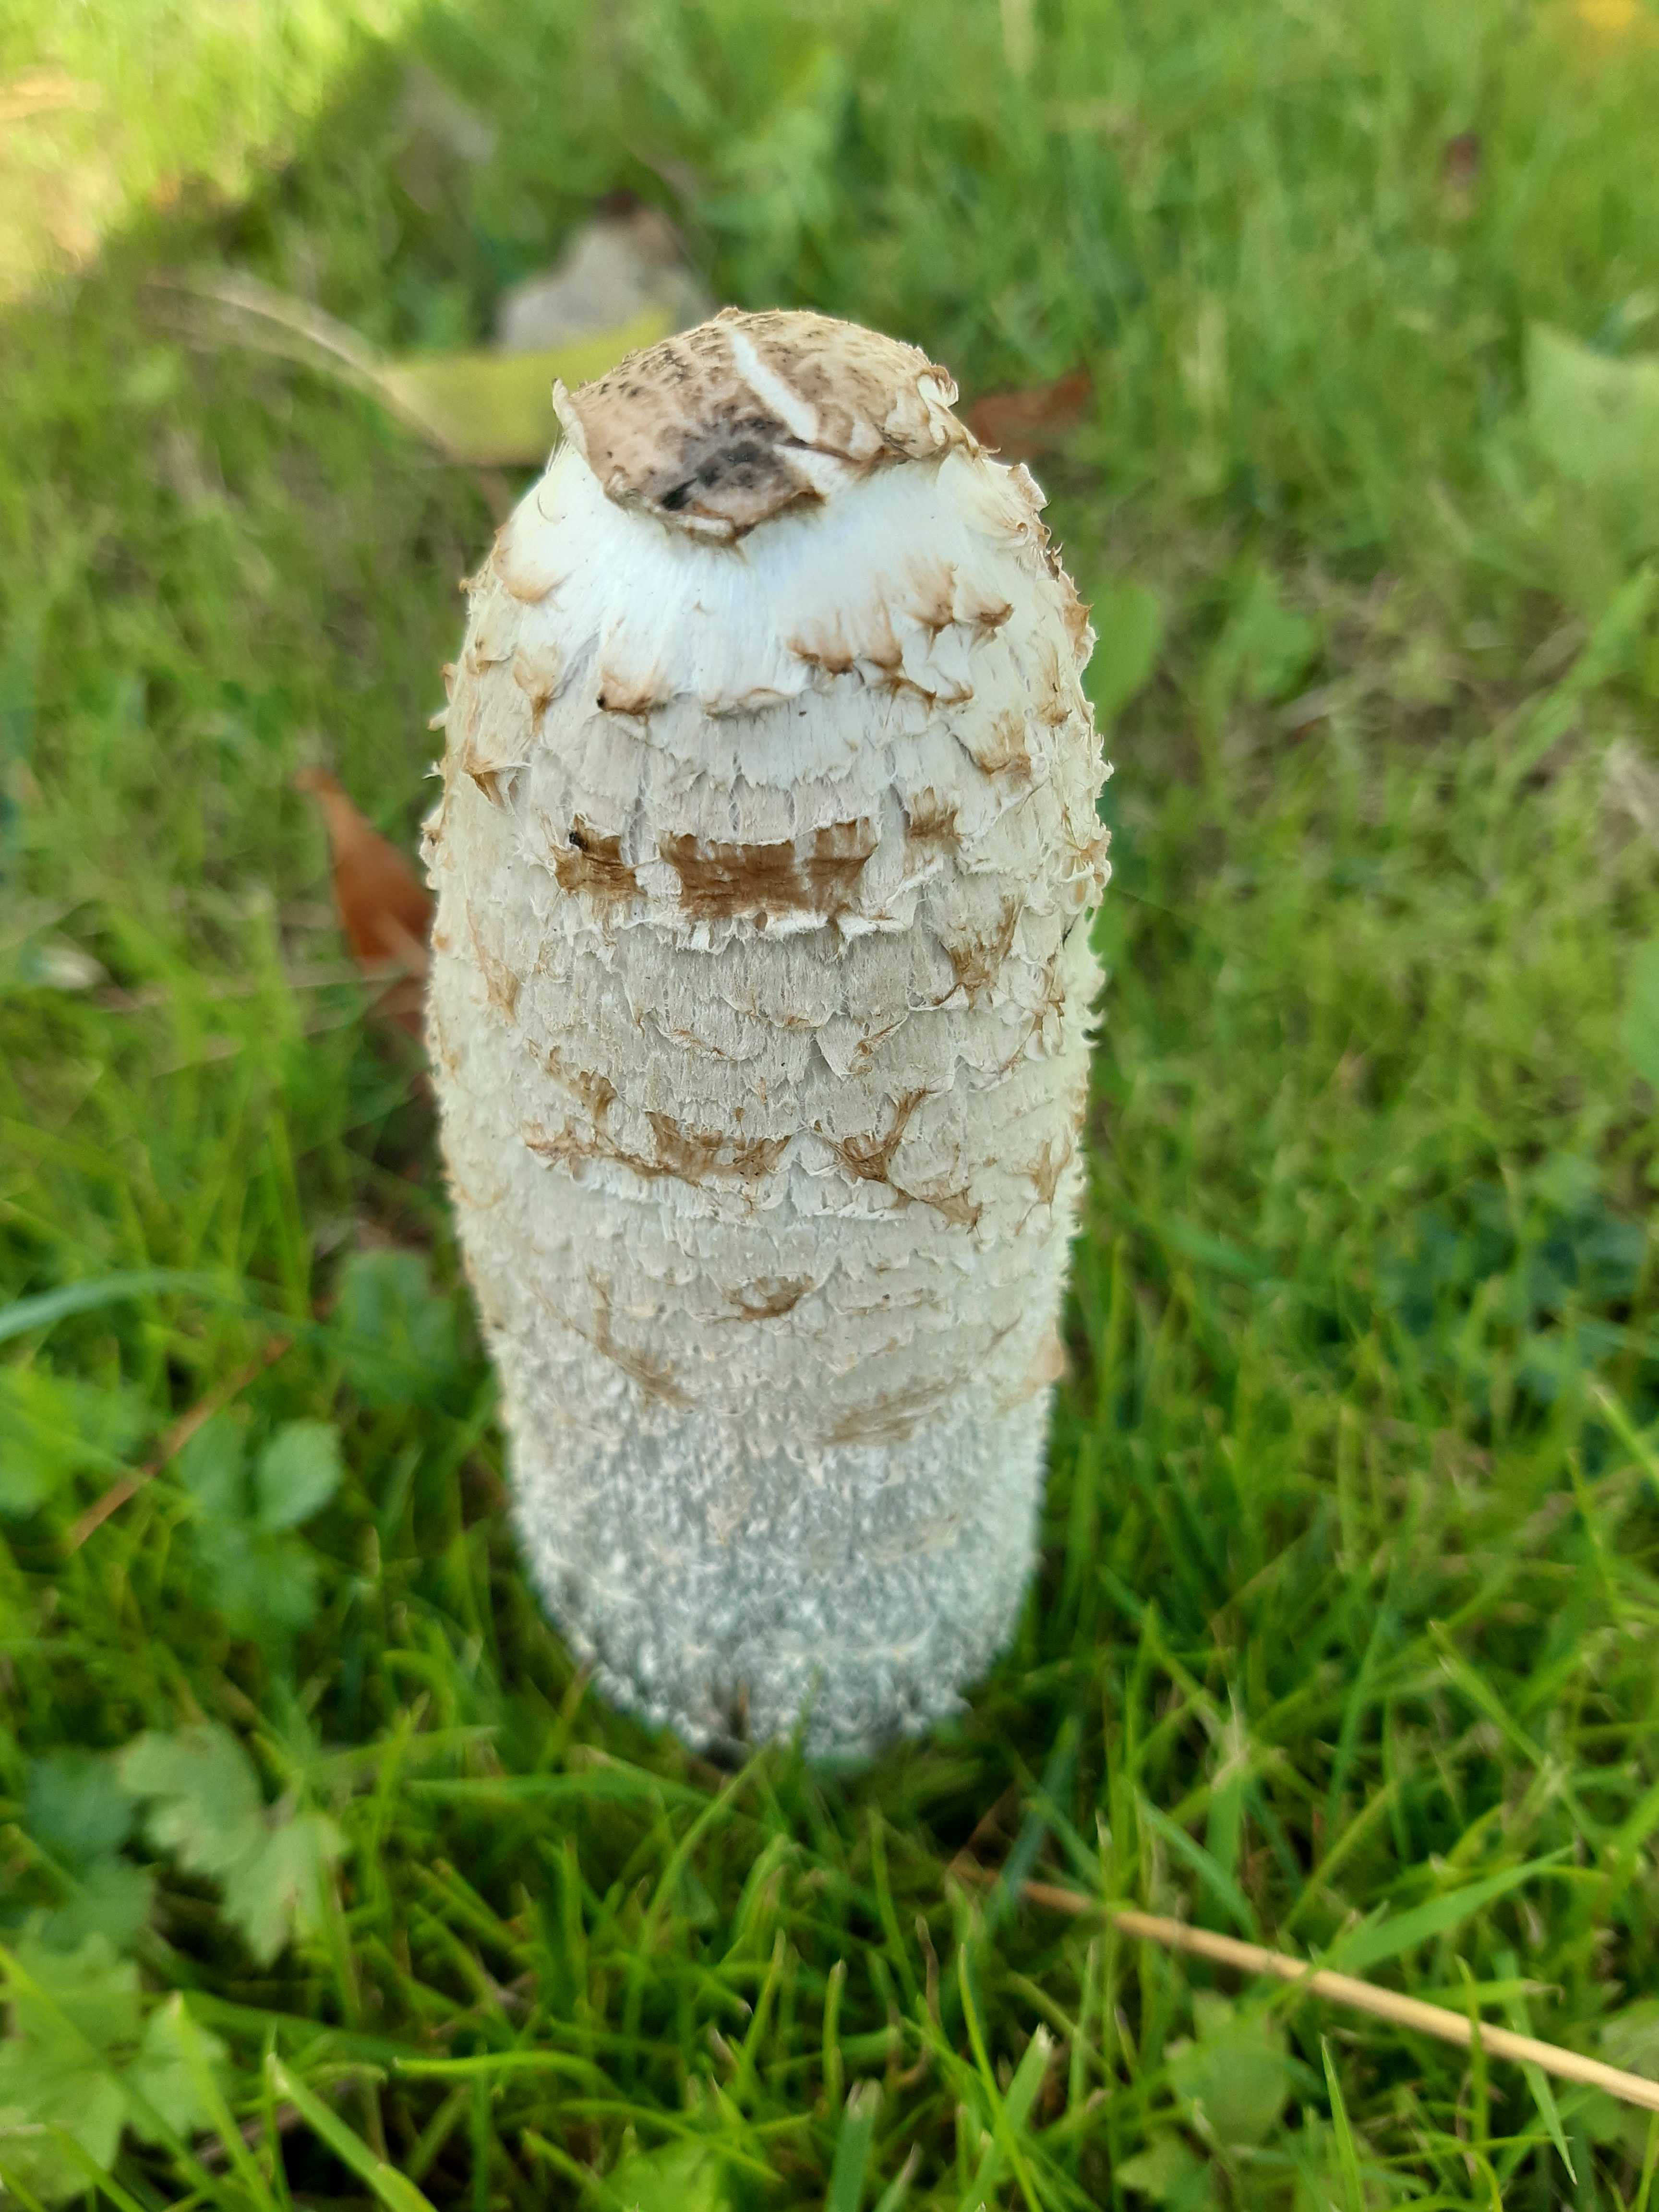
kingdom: Fungi
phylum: Basidiomycota
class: Agaricomycetes
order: Agaricales
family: Agaricaceae
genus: Coprinus
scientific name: Coprinus comatus
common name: stor parykhat
